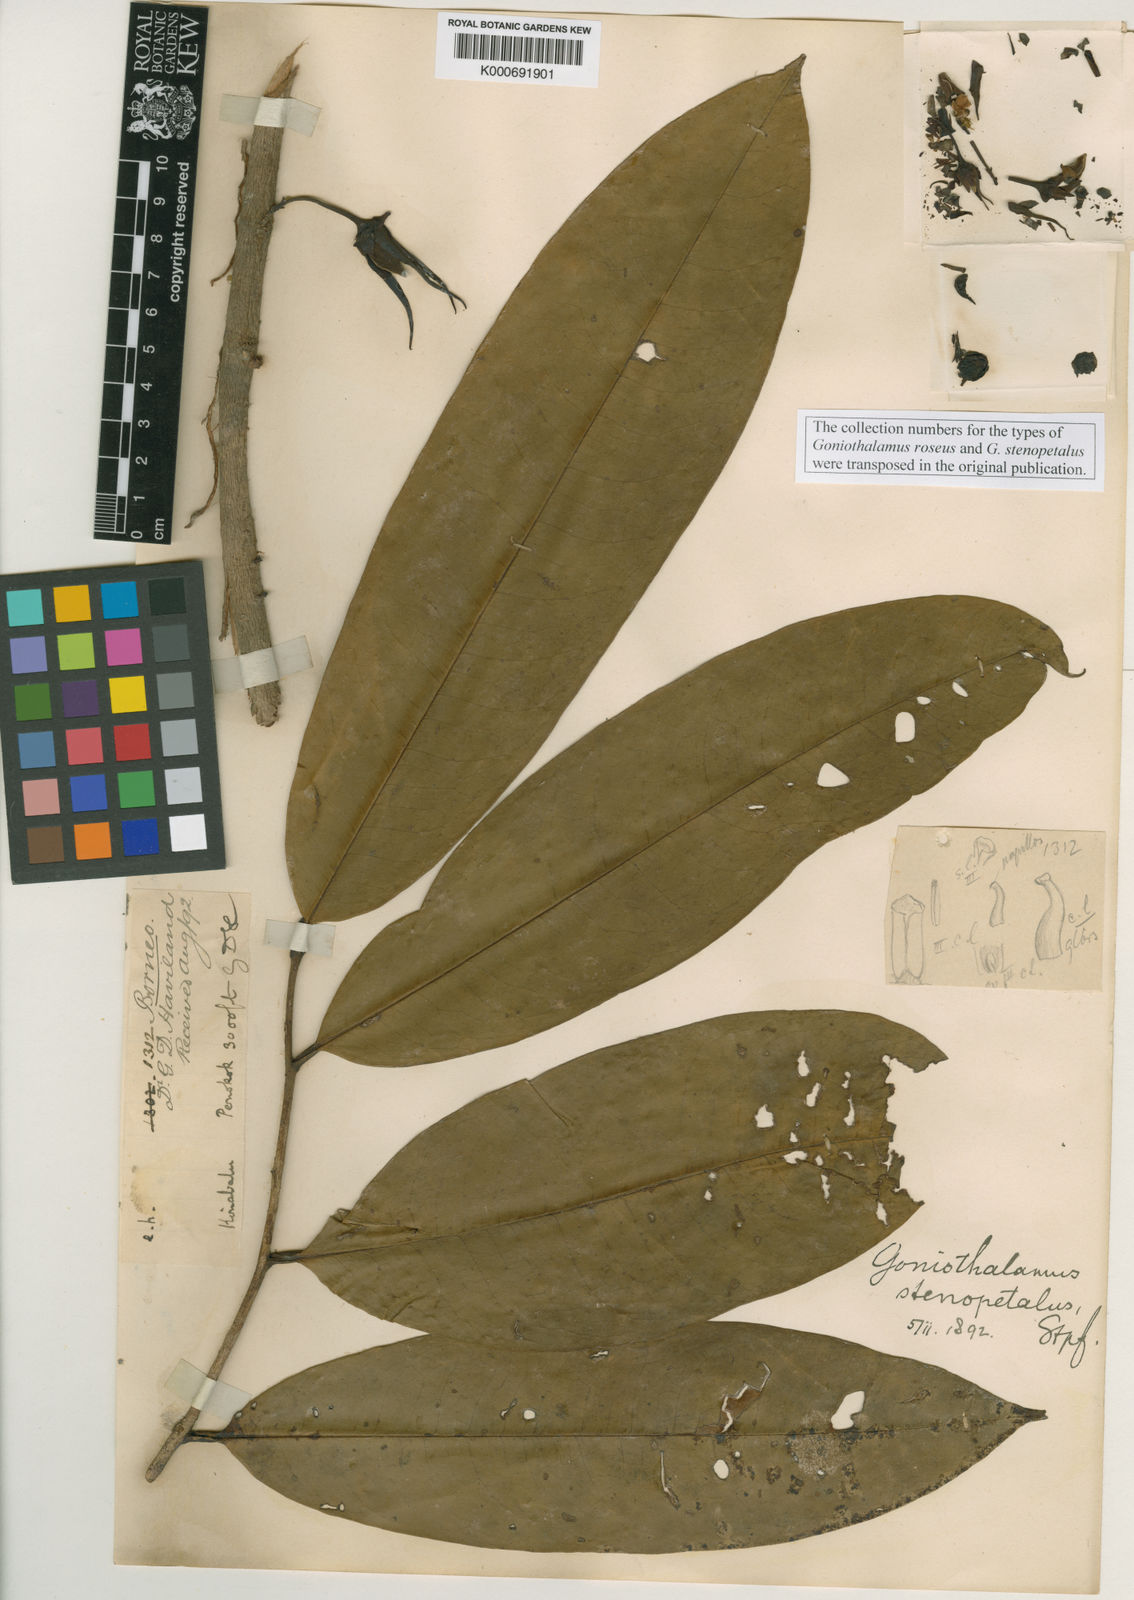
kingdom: Plantae
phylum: Tracheophyta
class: Magnoliopsida
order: Magnoliales
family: Annonaceae
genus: Goniothalamus
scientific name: Goniothalamus stenopetalus
